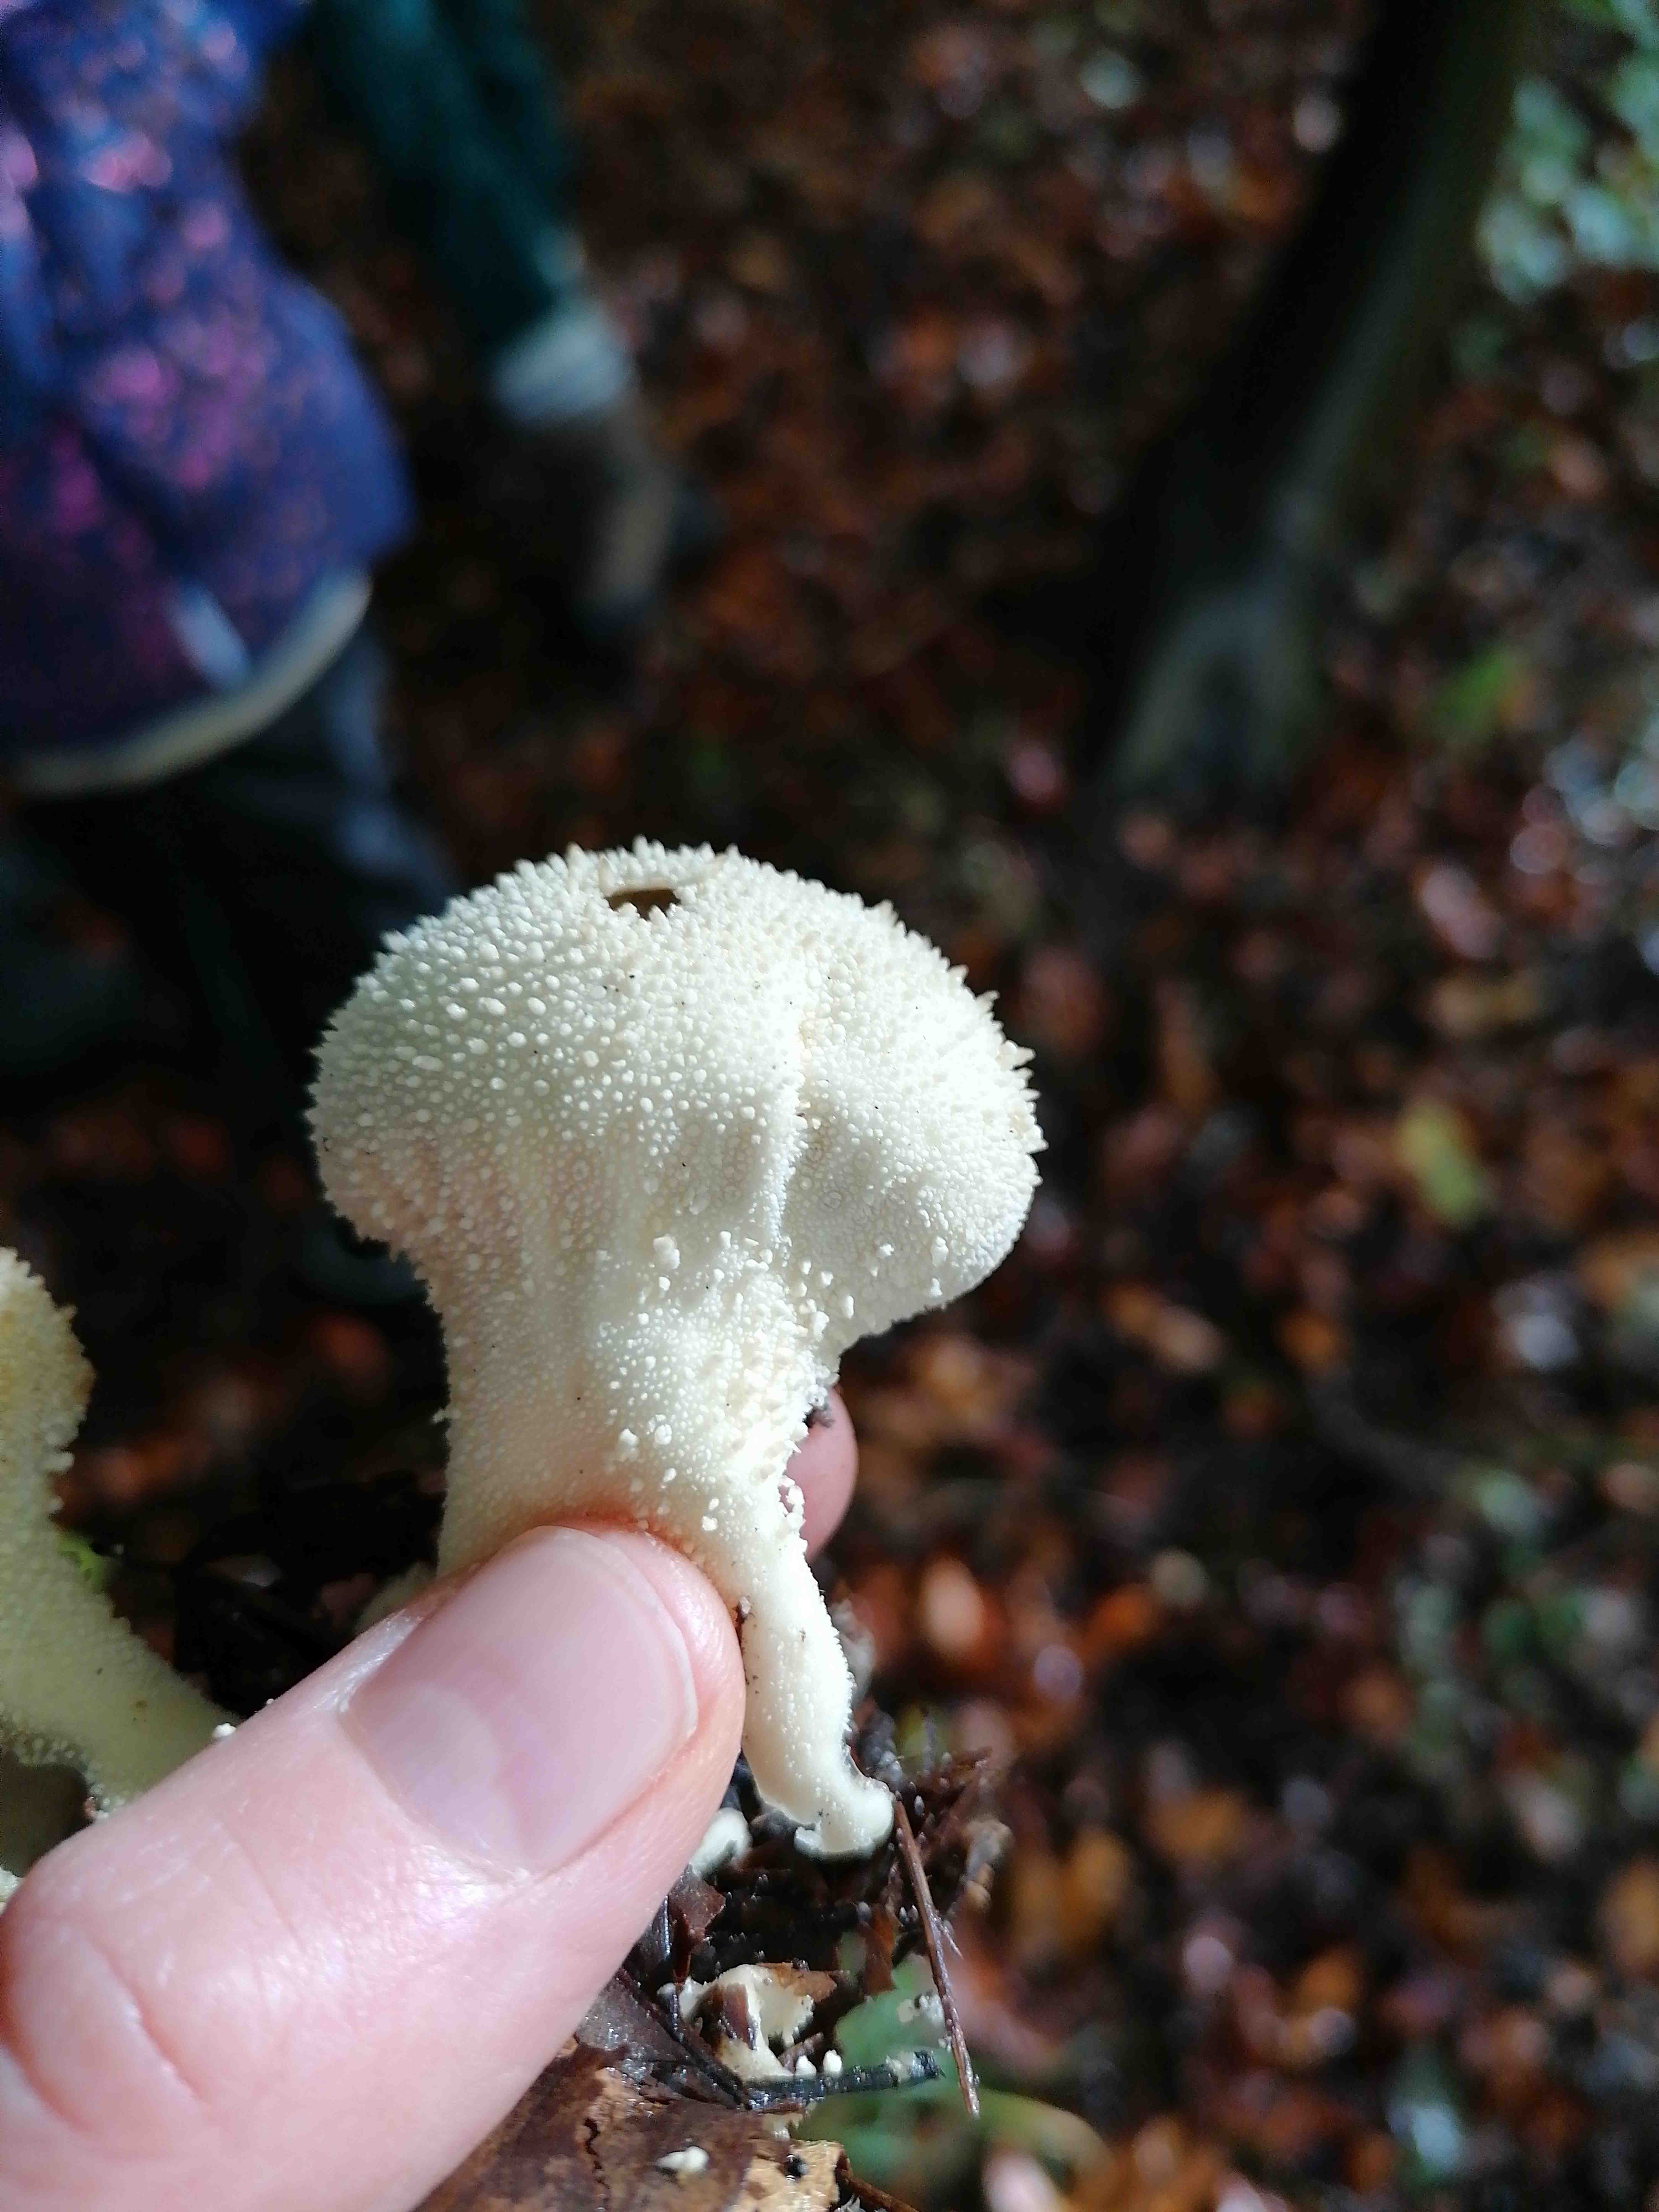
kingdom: Fungi
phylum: Basidiomycota
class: Agaricomycetes
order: Agaricales
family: Lycoperdaceae
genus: Lycoperdon
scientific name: Lycoperdon perlatum
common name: krystal-støvbold
